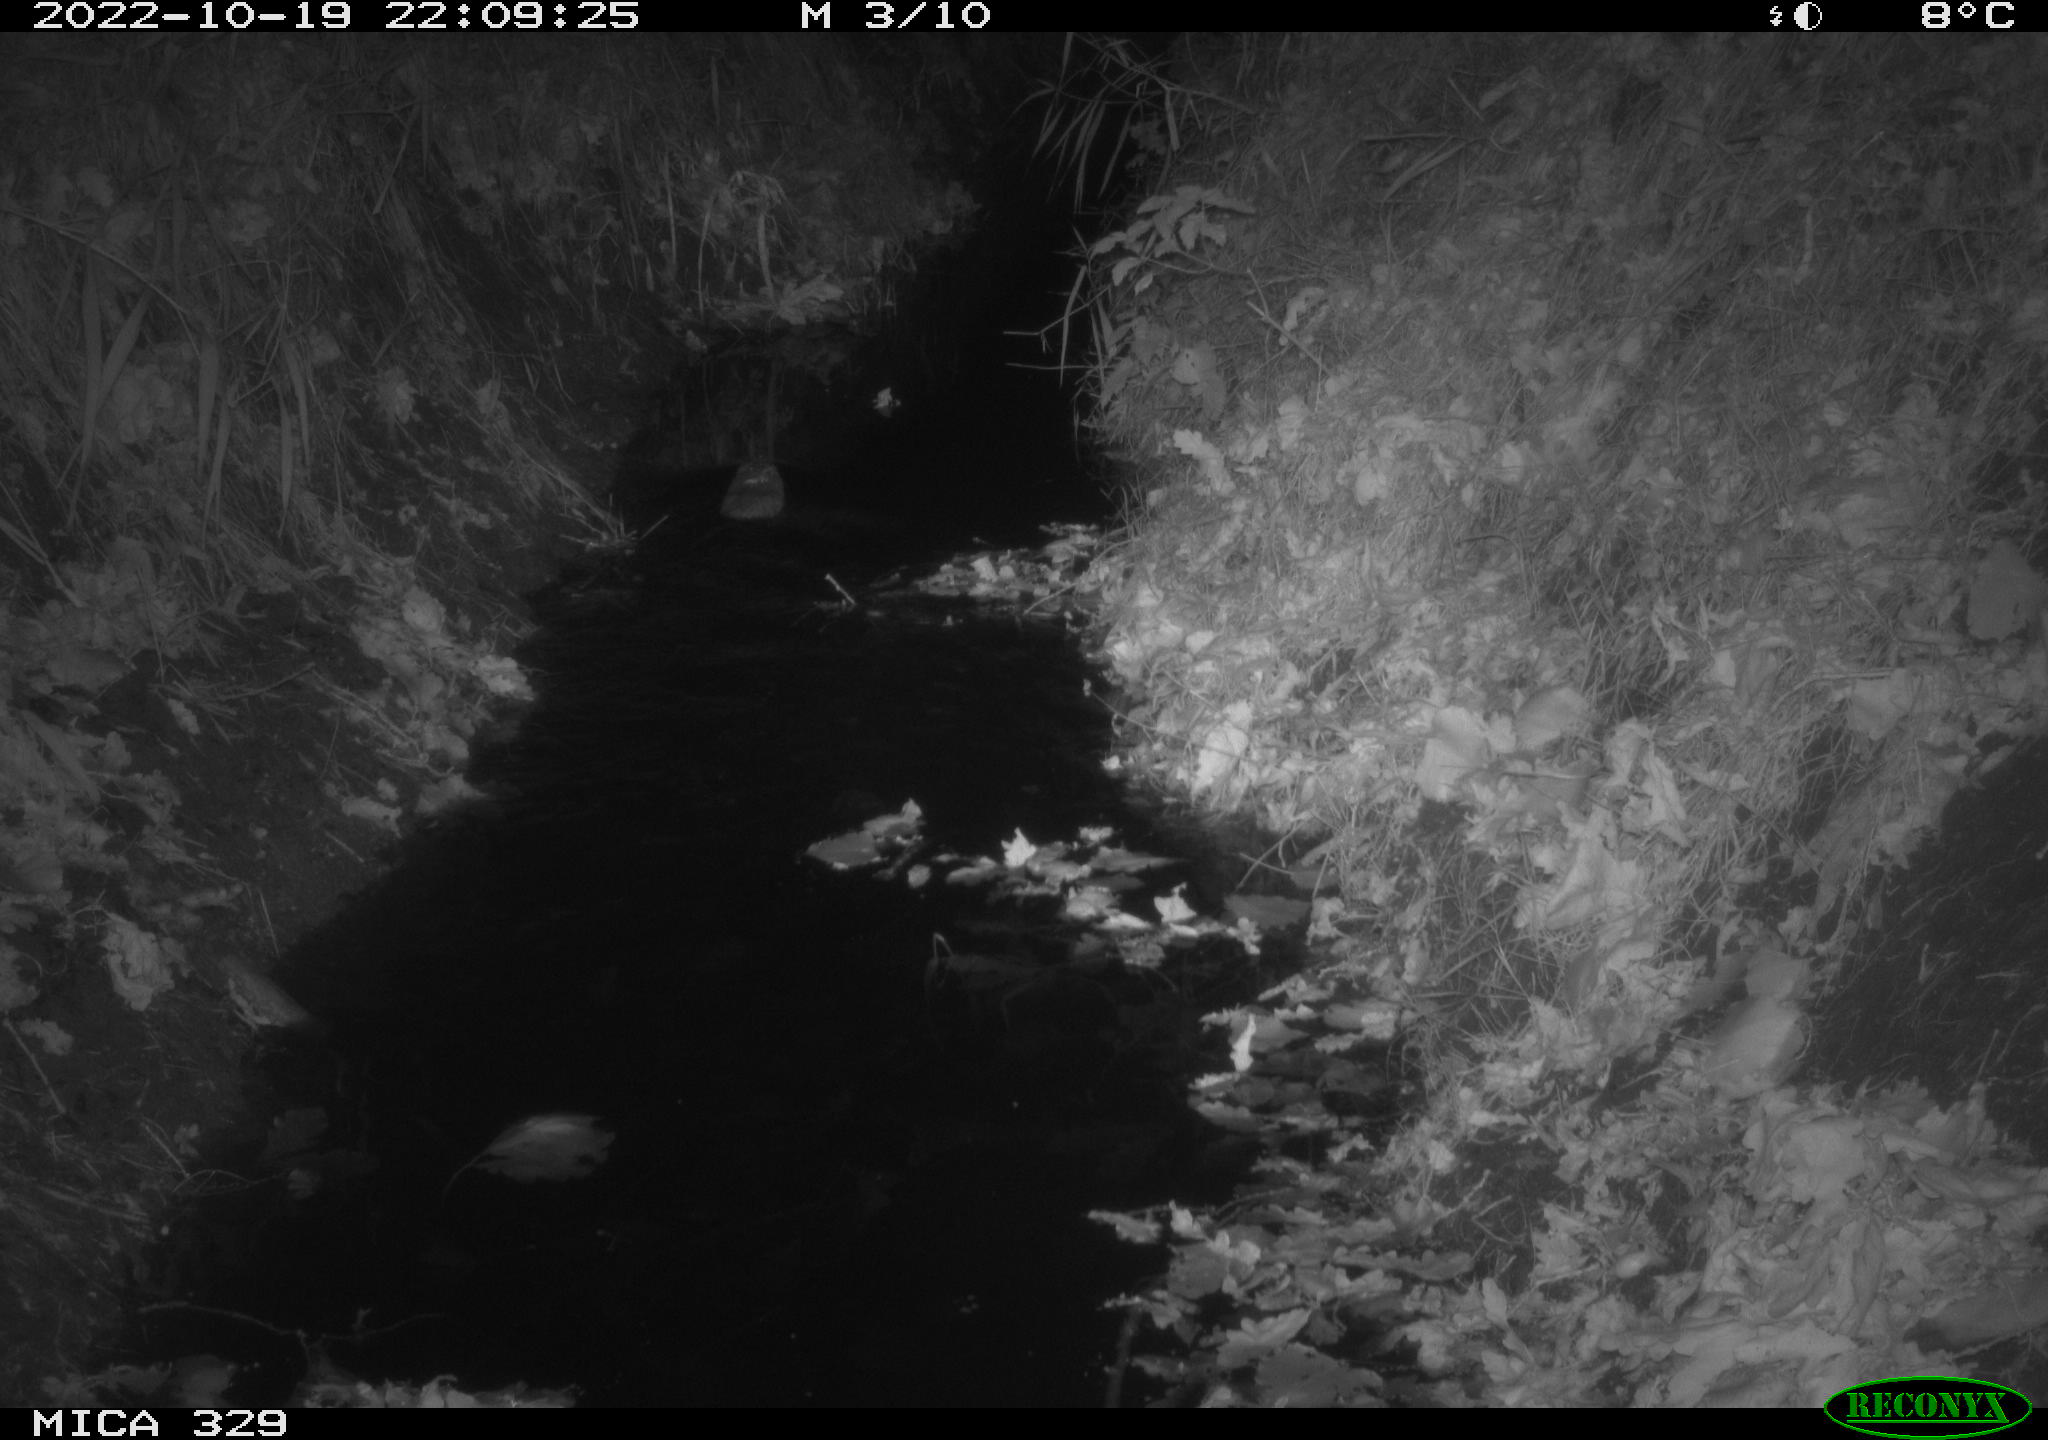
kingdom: Animalia
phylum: Chordata
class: Mammalia
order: Rodentia
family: Cricetidae
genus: Ondatra
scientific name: Ondatra zibethicus
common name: Muskrat
